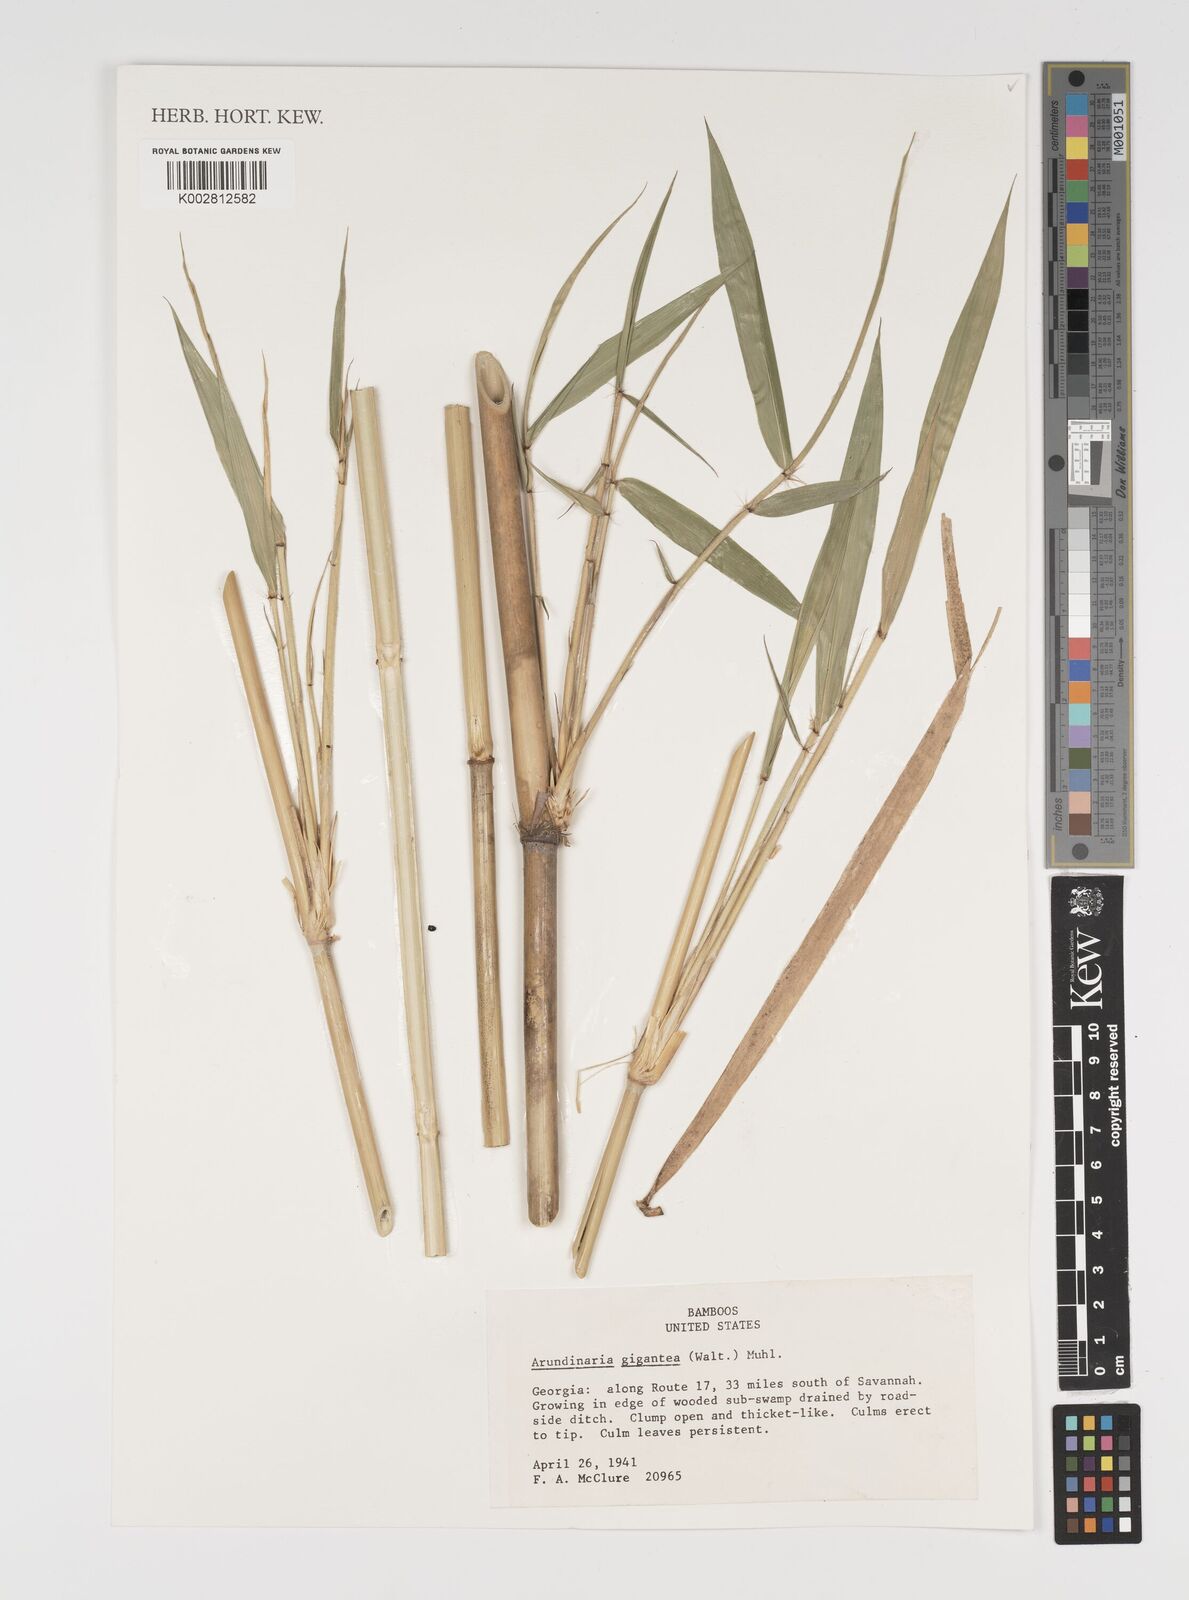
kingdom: Plantae
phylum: Tracheophyta
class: Liliopsida
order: Poales
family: Poaceae
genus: Arundinaria
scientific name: Arundinaria gigantea
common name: Giant cane
